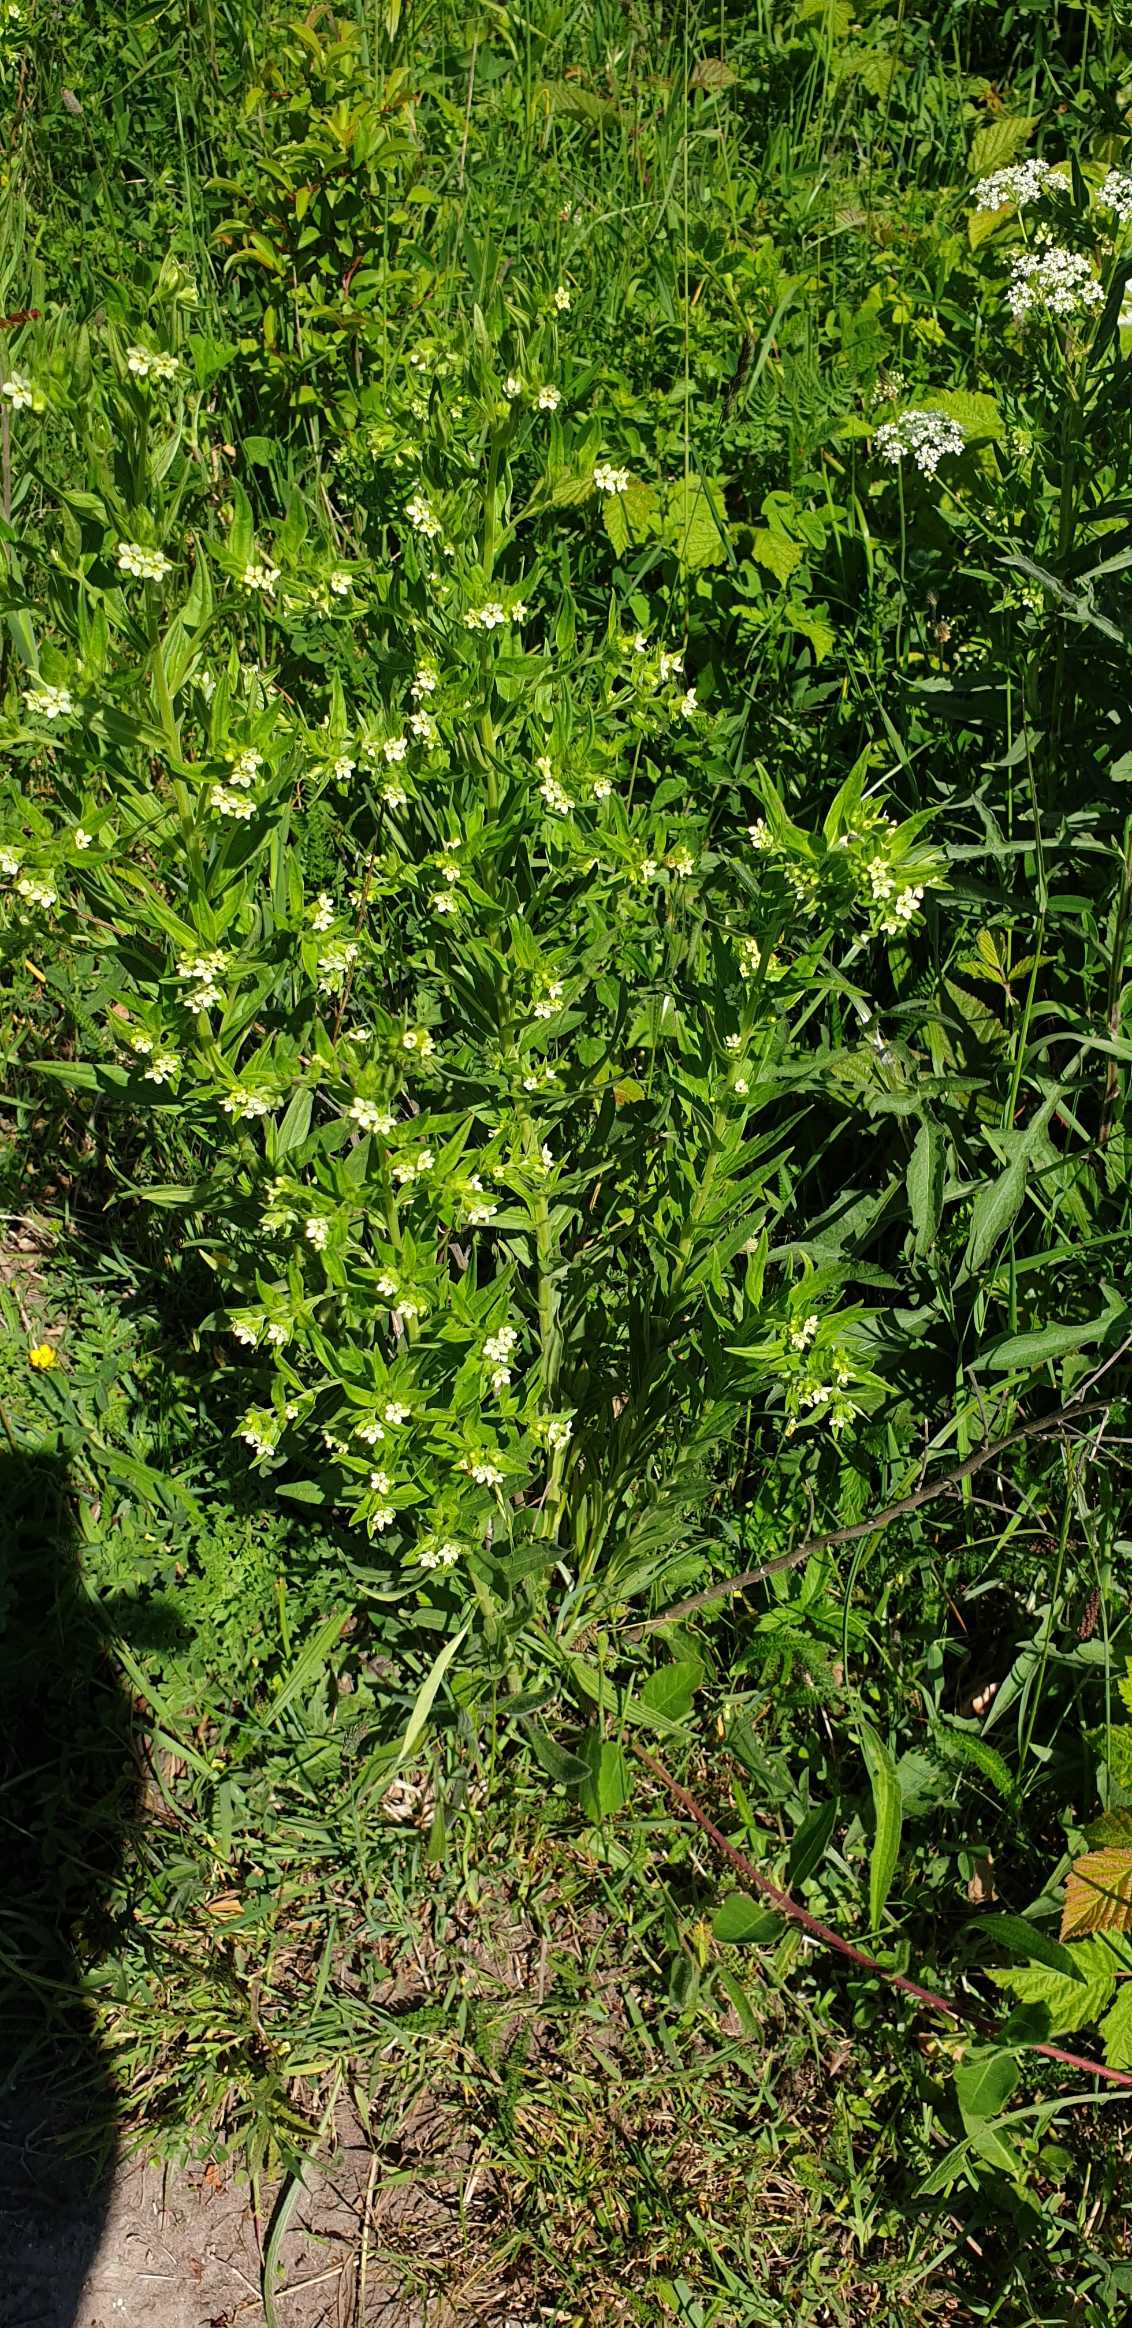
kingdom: Plantae
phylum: Tracheophyta
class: Magnoliopsida
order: Boraginales
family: Boraginaceae
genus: Lithospermum
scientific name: Lithospermum officinale
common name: Læge-stenfrø
